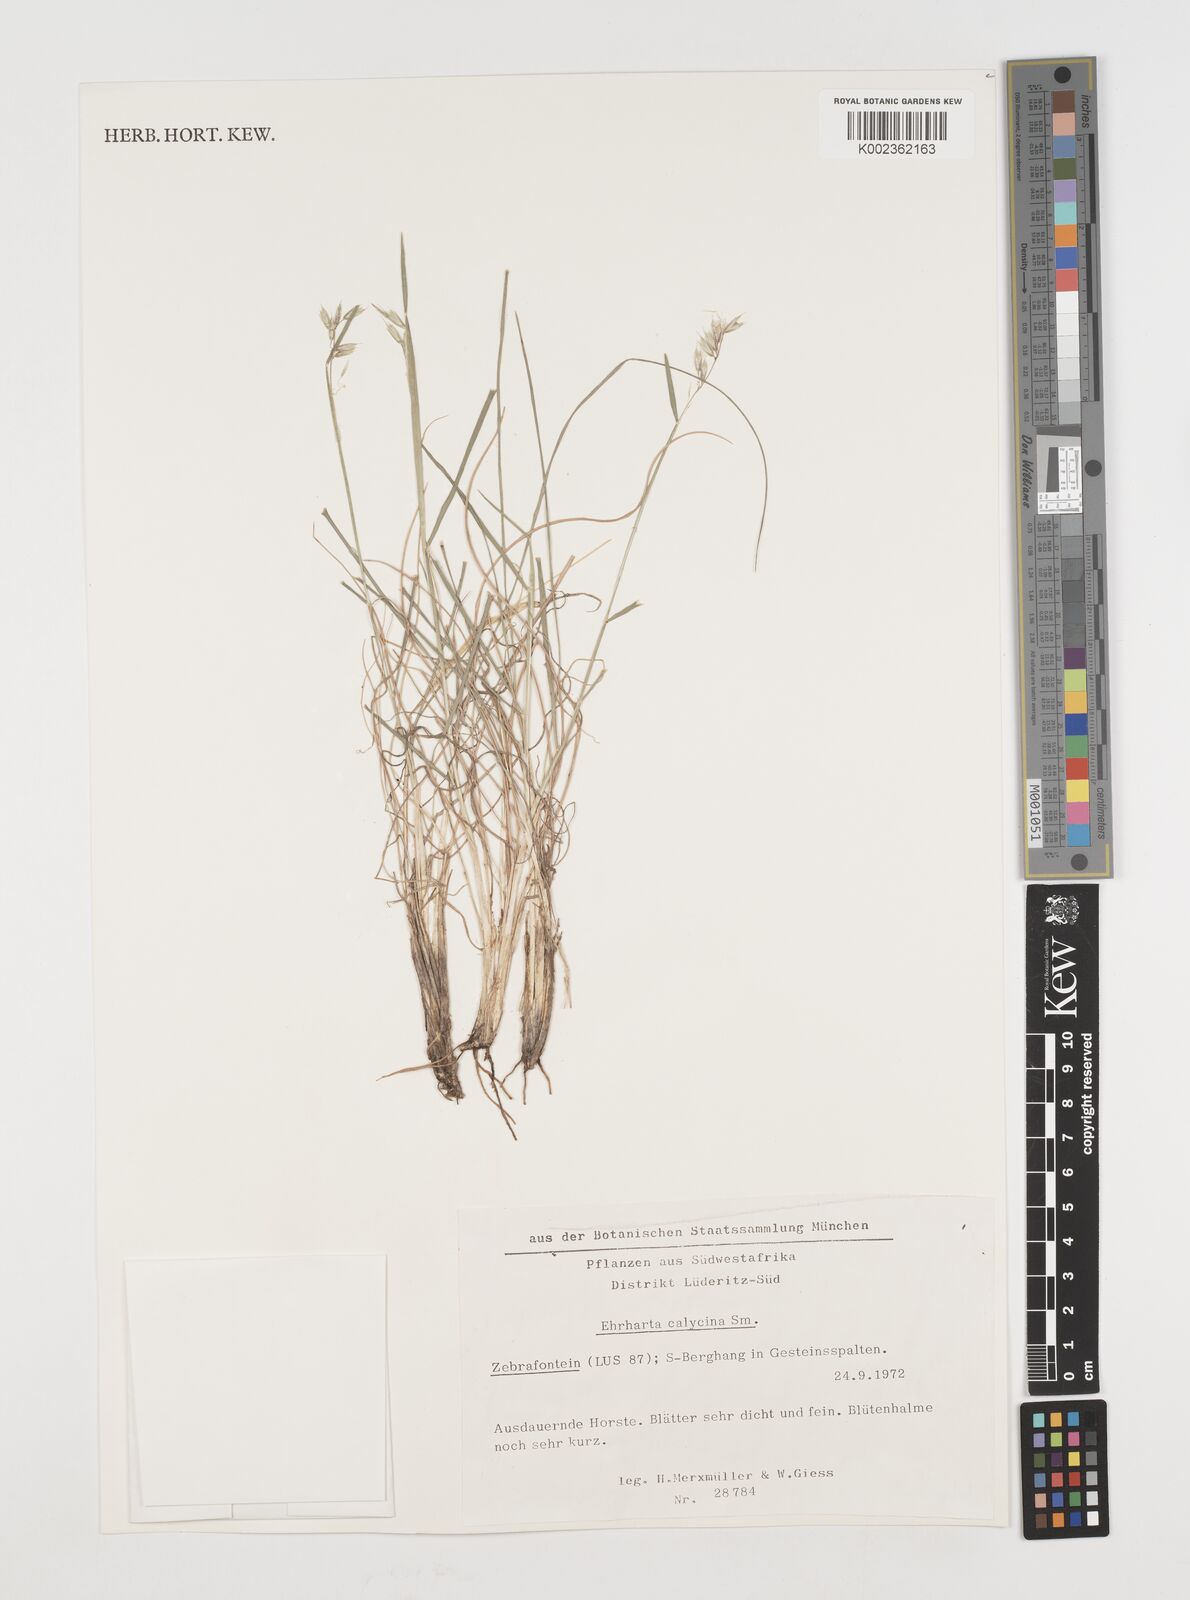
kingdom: Plantae
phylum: Tracheophyta
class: Liliopsida
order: Poales
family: Poaceae
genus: Ehrharta
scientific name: Ehrharta
